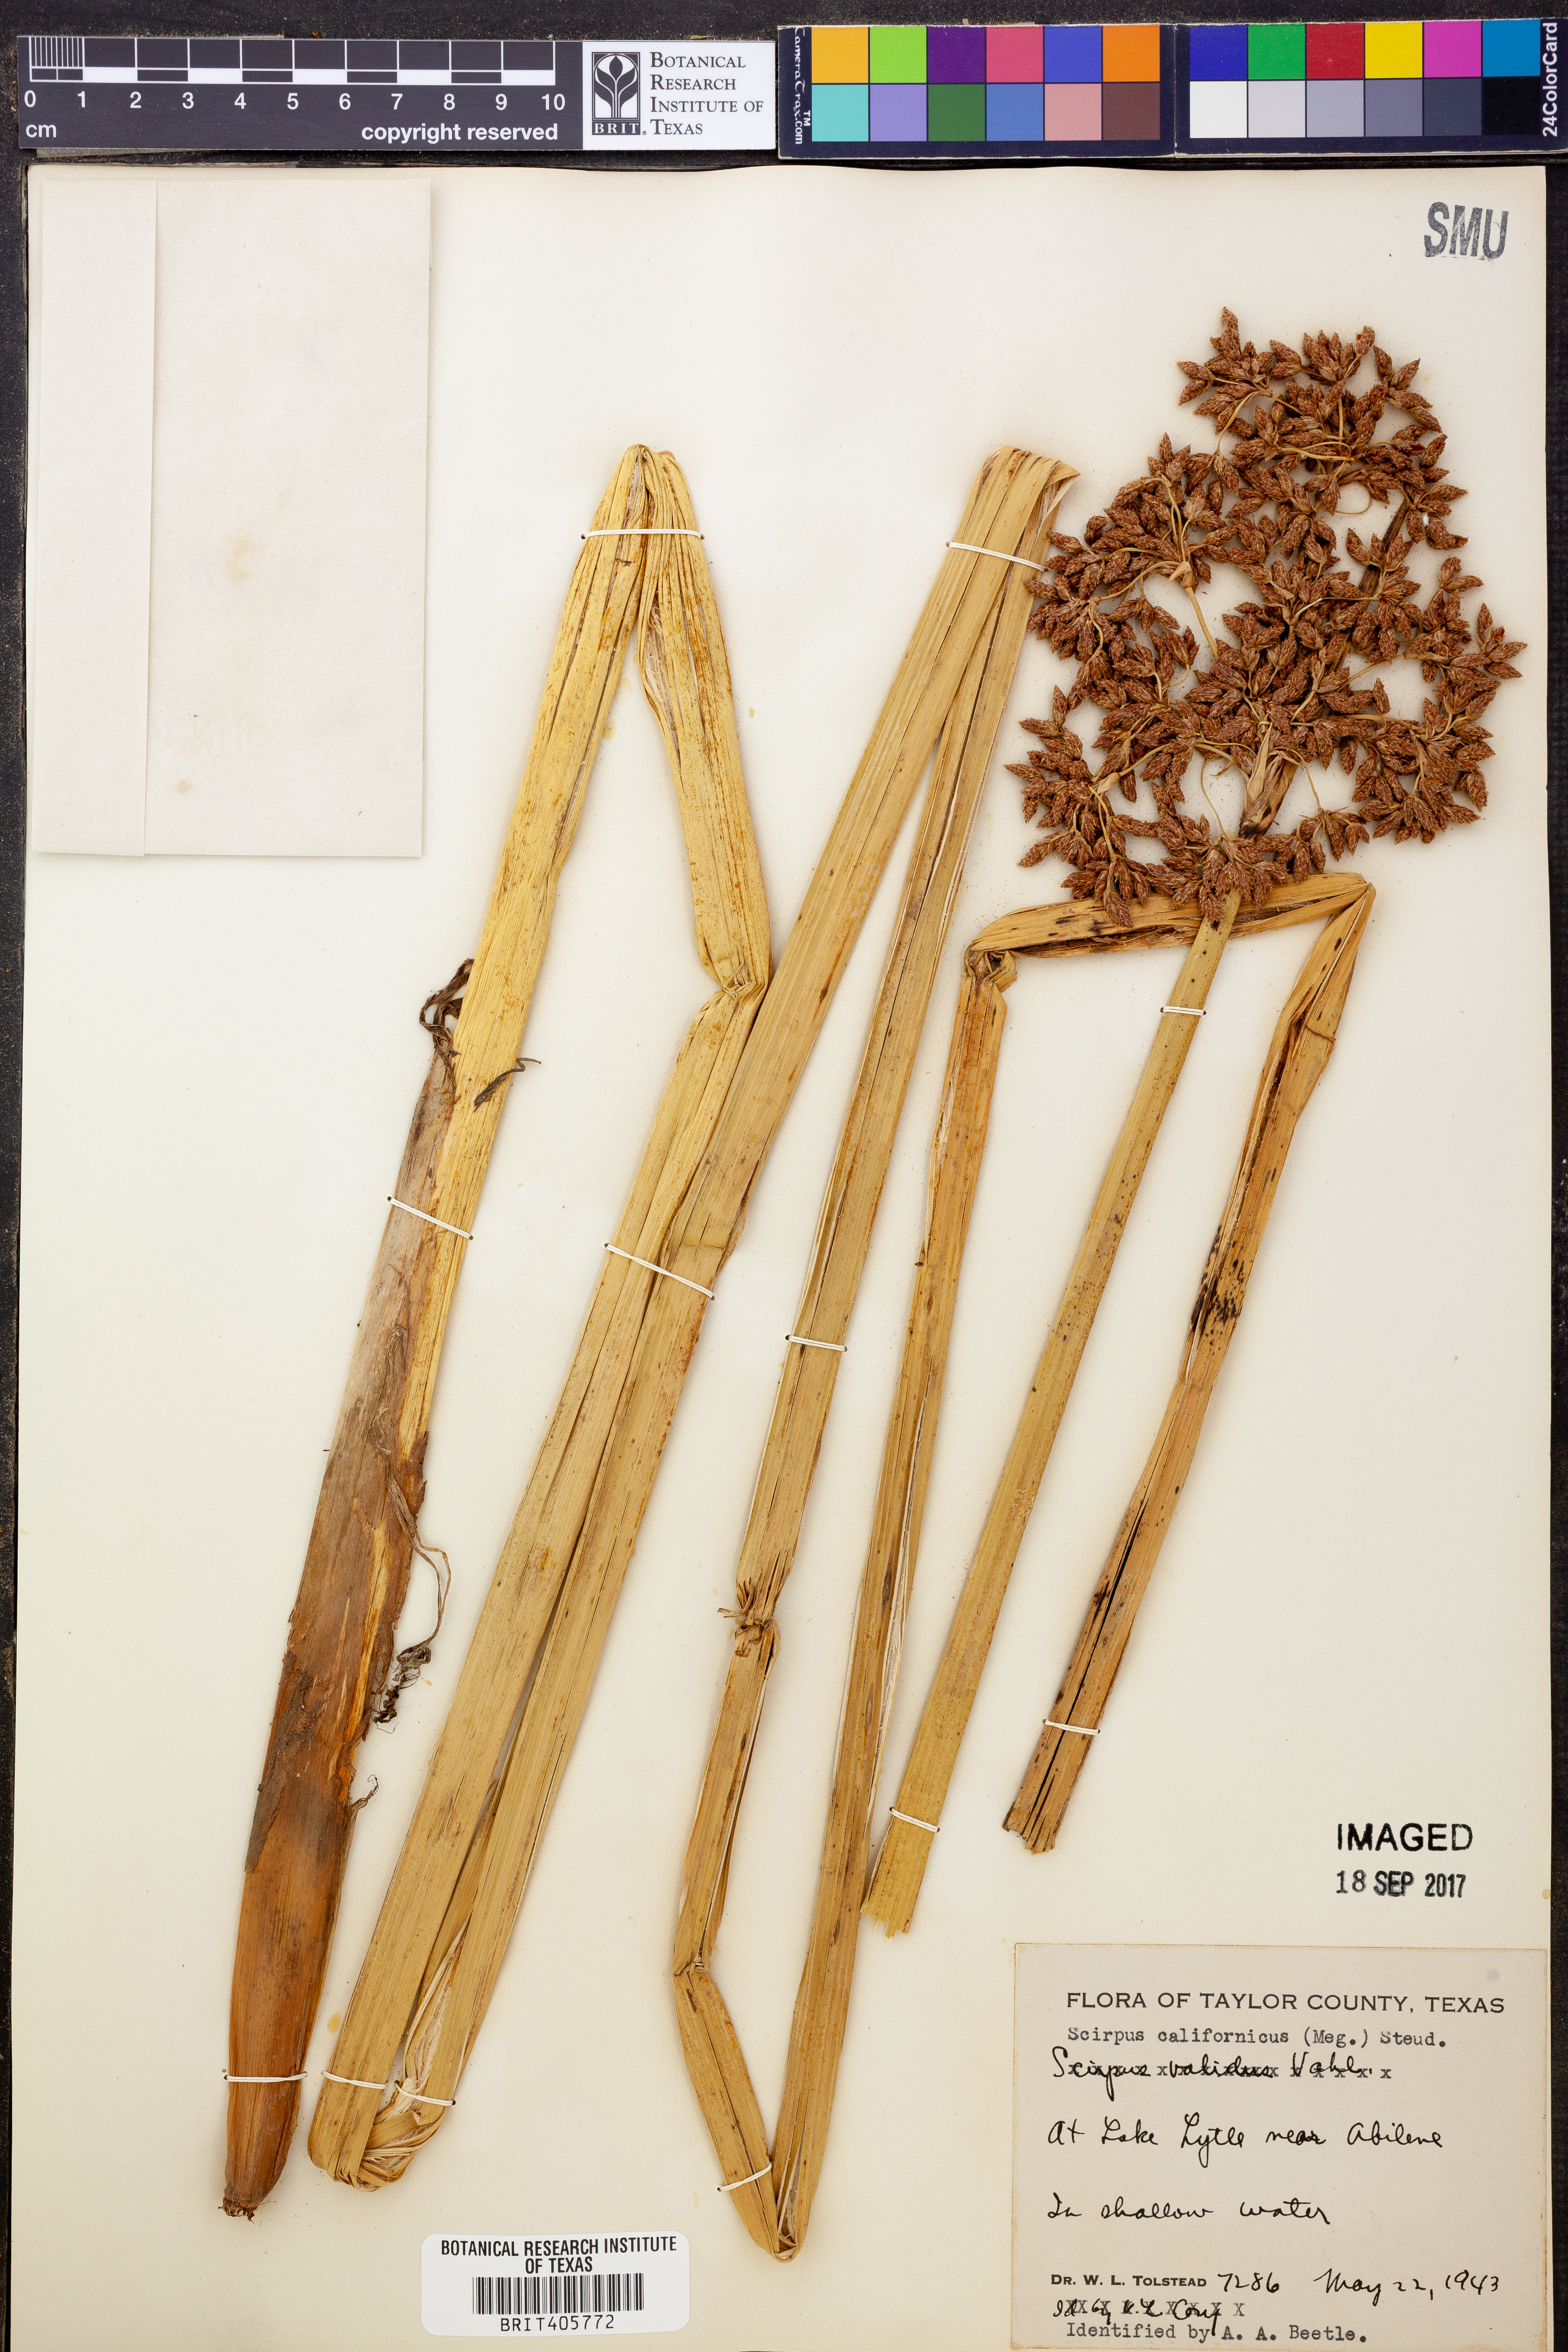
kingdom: Plantae
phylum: Tracheophyta
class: Liliopsida
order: Poales
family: Cyperaceae
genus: Schoenoplectus
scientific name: Schoenoplectus californicus
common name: California bulrush
